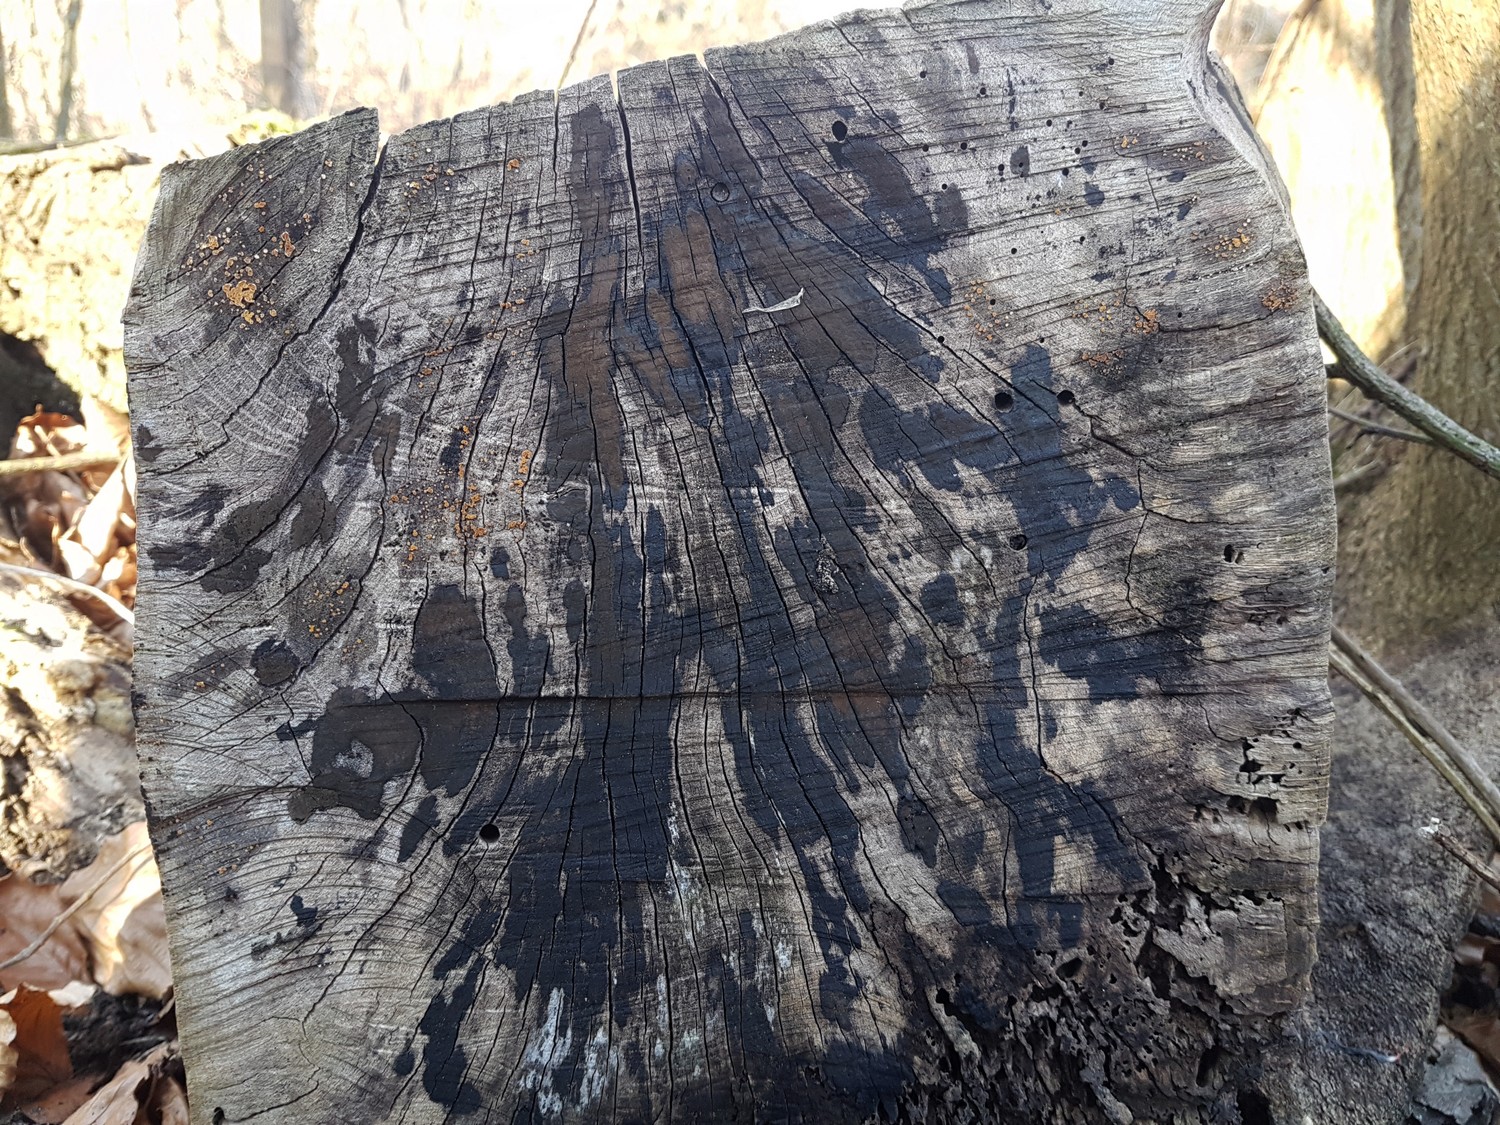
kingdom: Fungi
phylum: Ascomycota
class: Leotiomycetes
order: Helotiales
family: Helotiaceae
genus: Bispora
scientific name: Bispora pallescens
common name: måtte-snitskive
